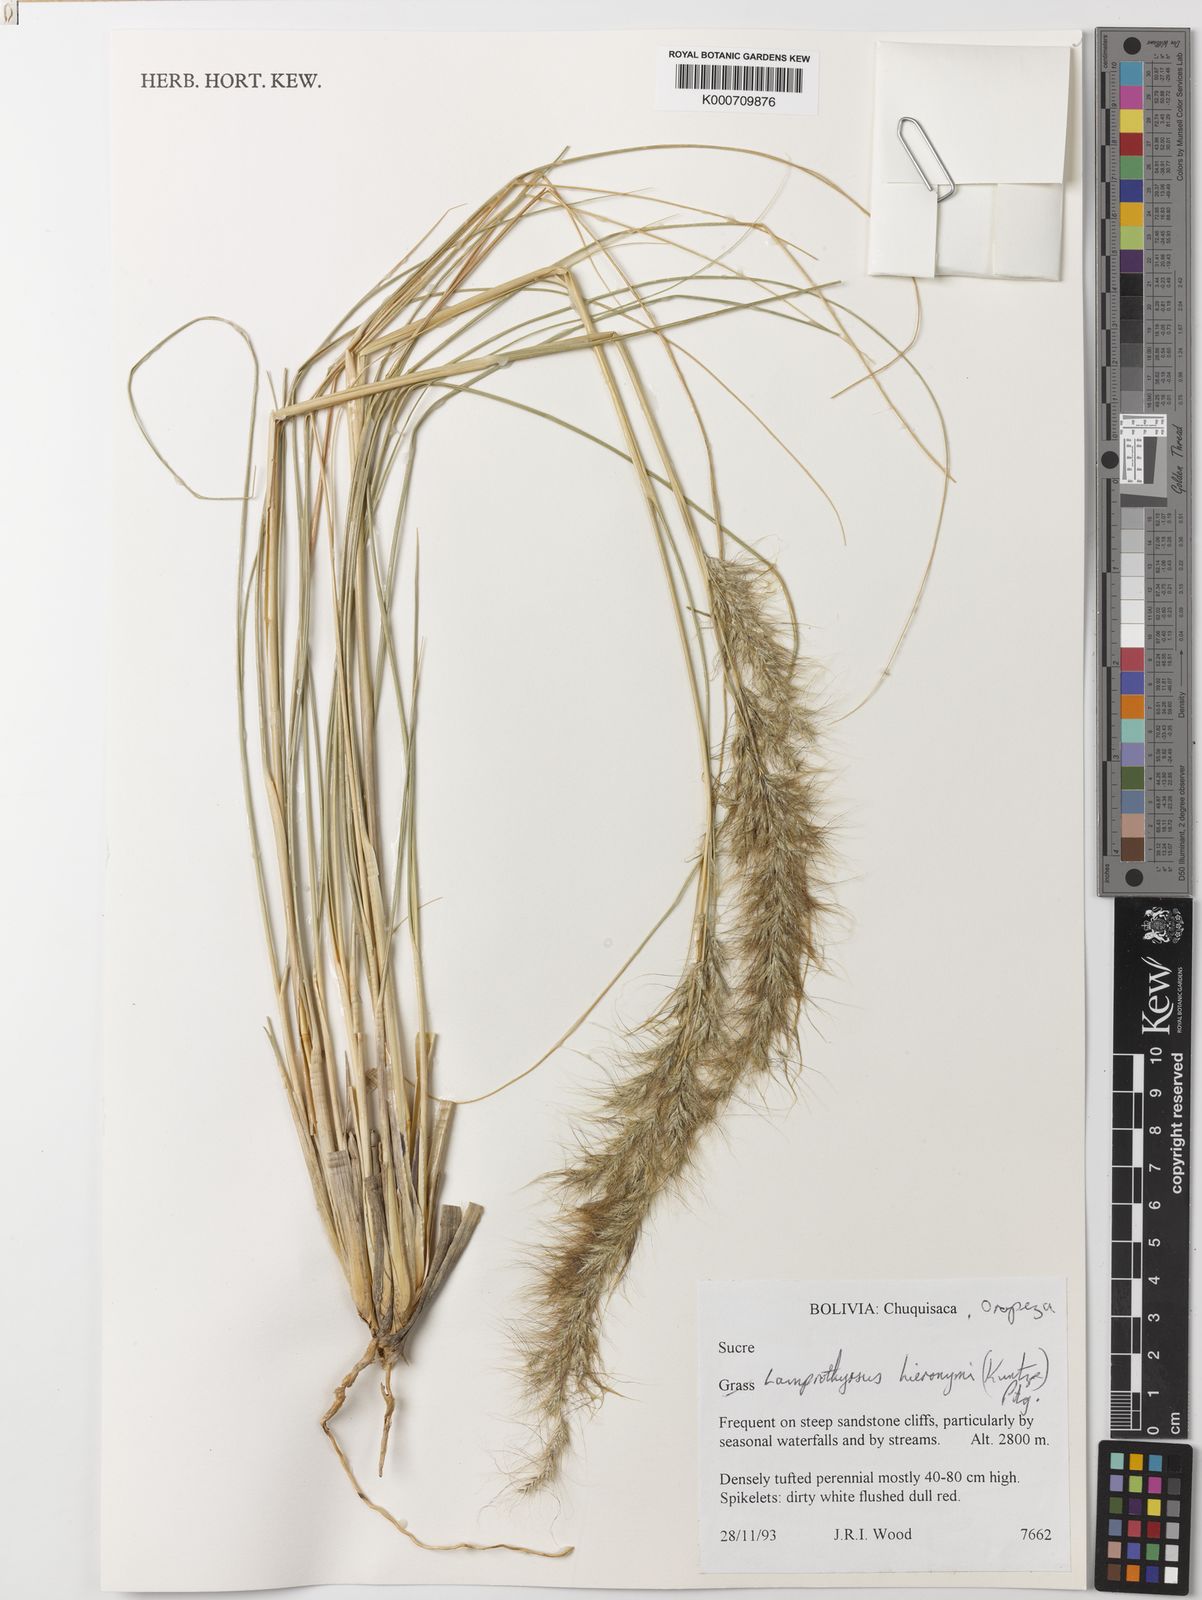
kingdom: Plantae
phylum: Tracheophyta
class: Liliopsida
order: Poales
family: Poaceae
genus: Cortaderia
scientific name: Cortaderia hieronymi
